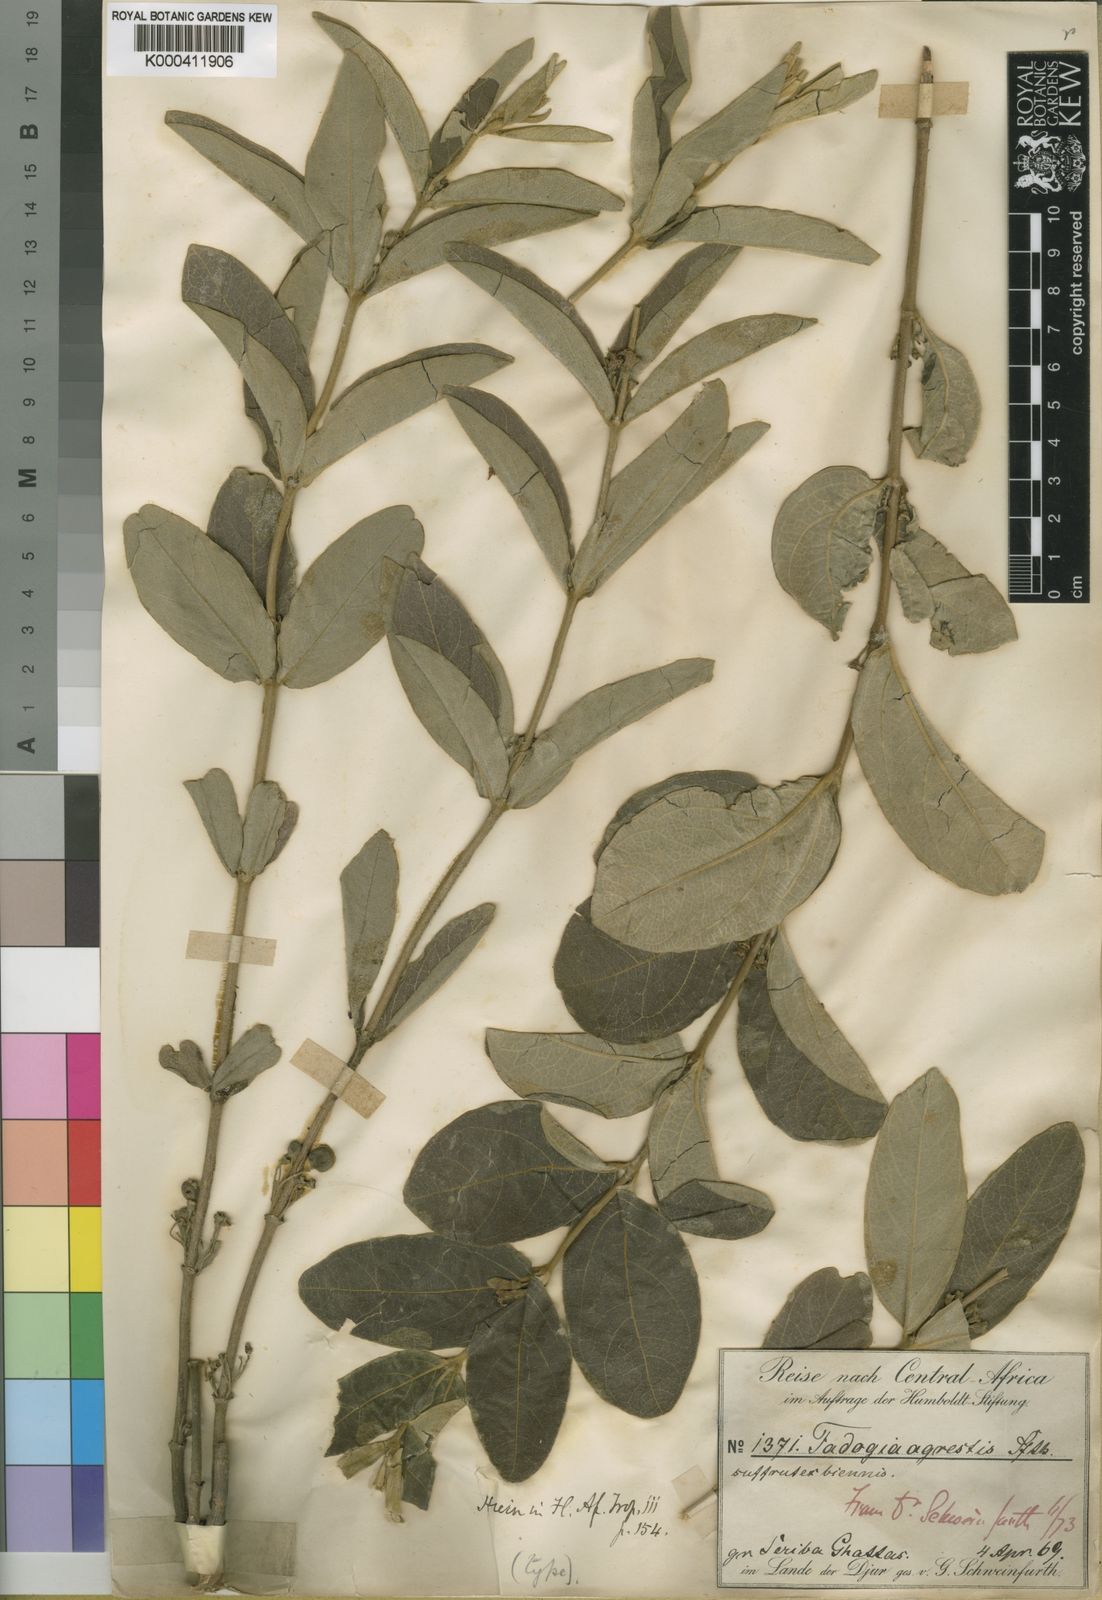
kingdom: Plantae
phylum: Tracheophyta
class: Magnoliopsida
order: Gentianales
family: Rubiaceae
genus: Vangueria
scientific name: Vangueria agrestis
